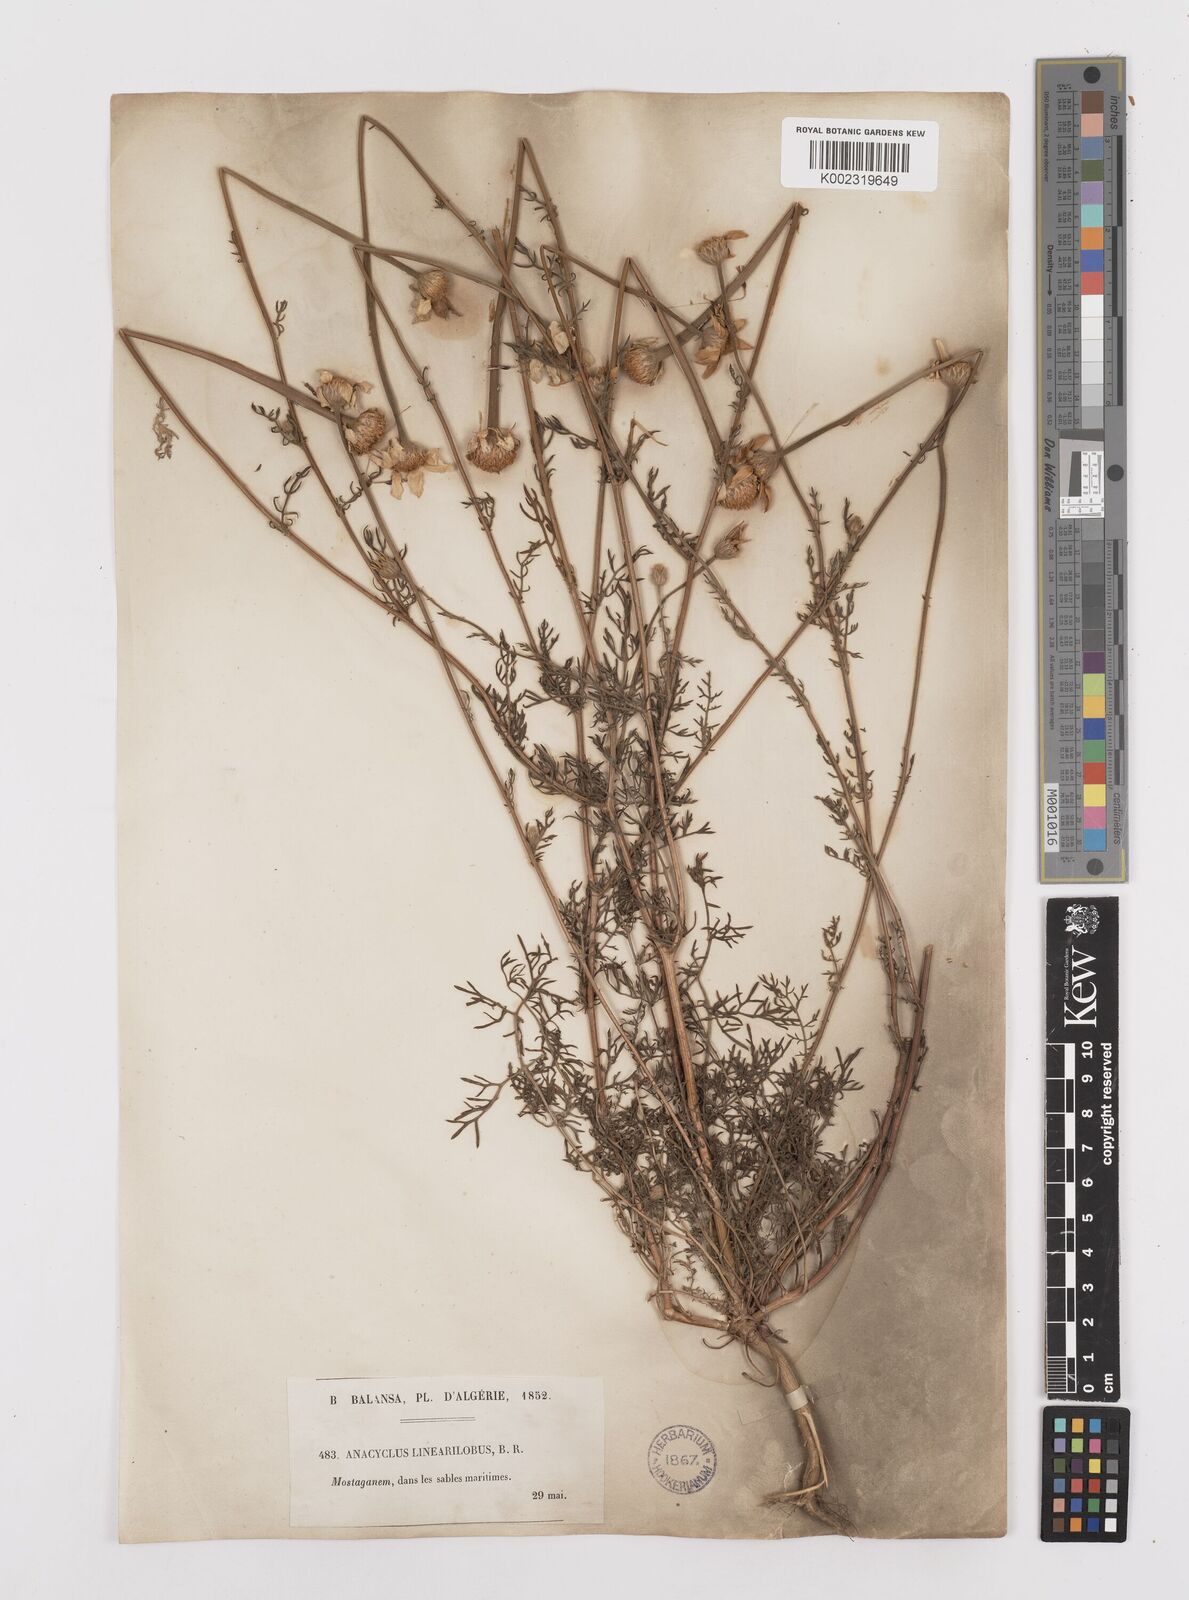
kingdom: Plantae
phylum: Tracheophyta
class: Magnoliopsida
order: Asterales
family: Asteraceae
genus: Anacyclus
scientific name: Anacyclus linearilobus
